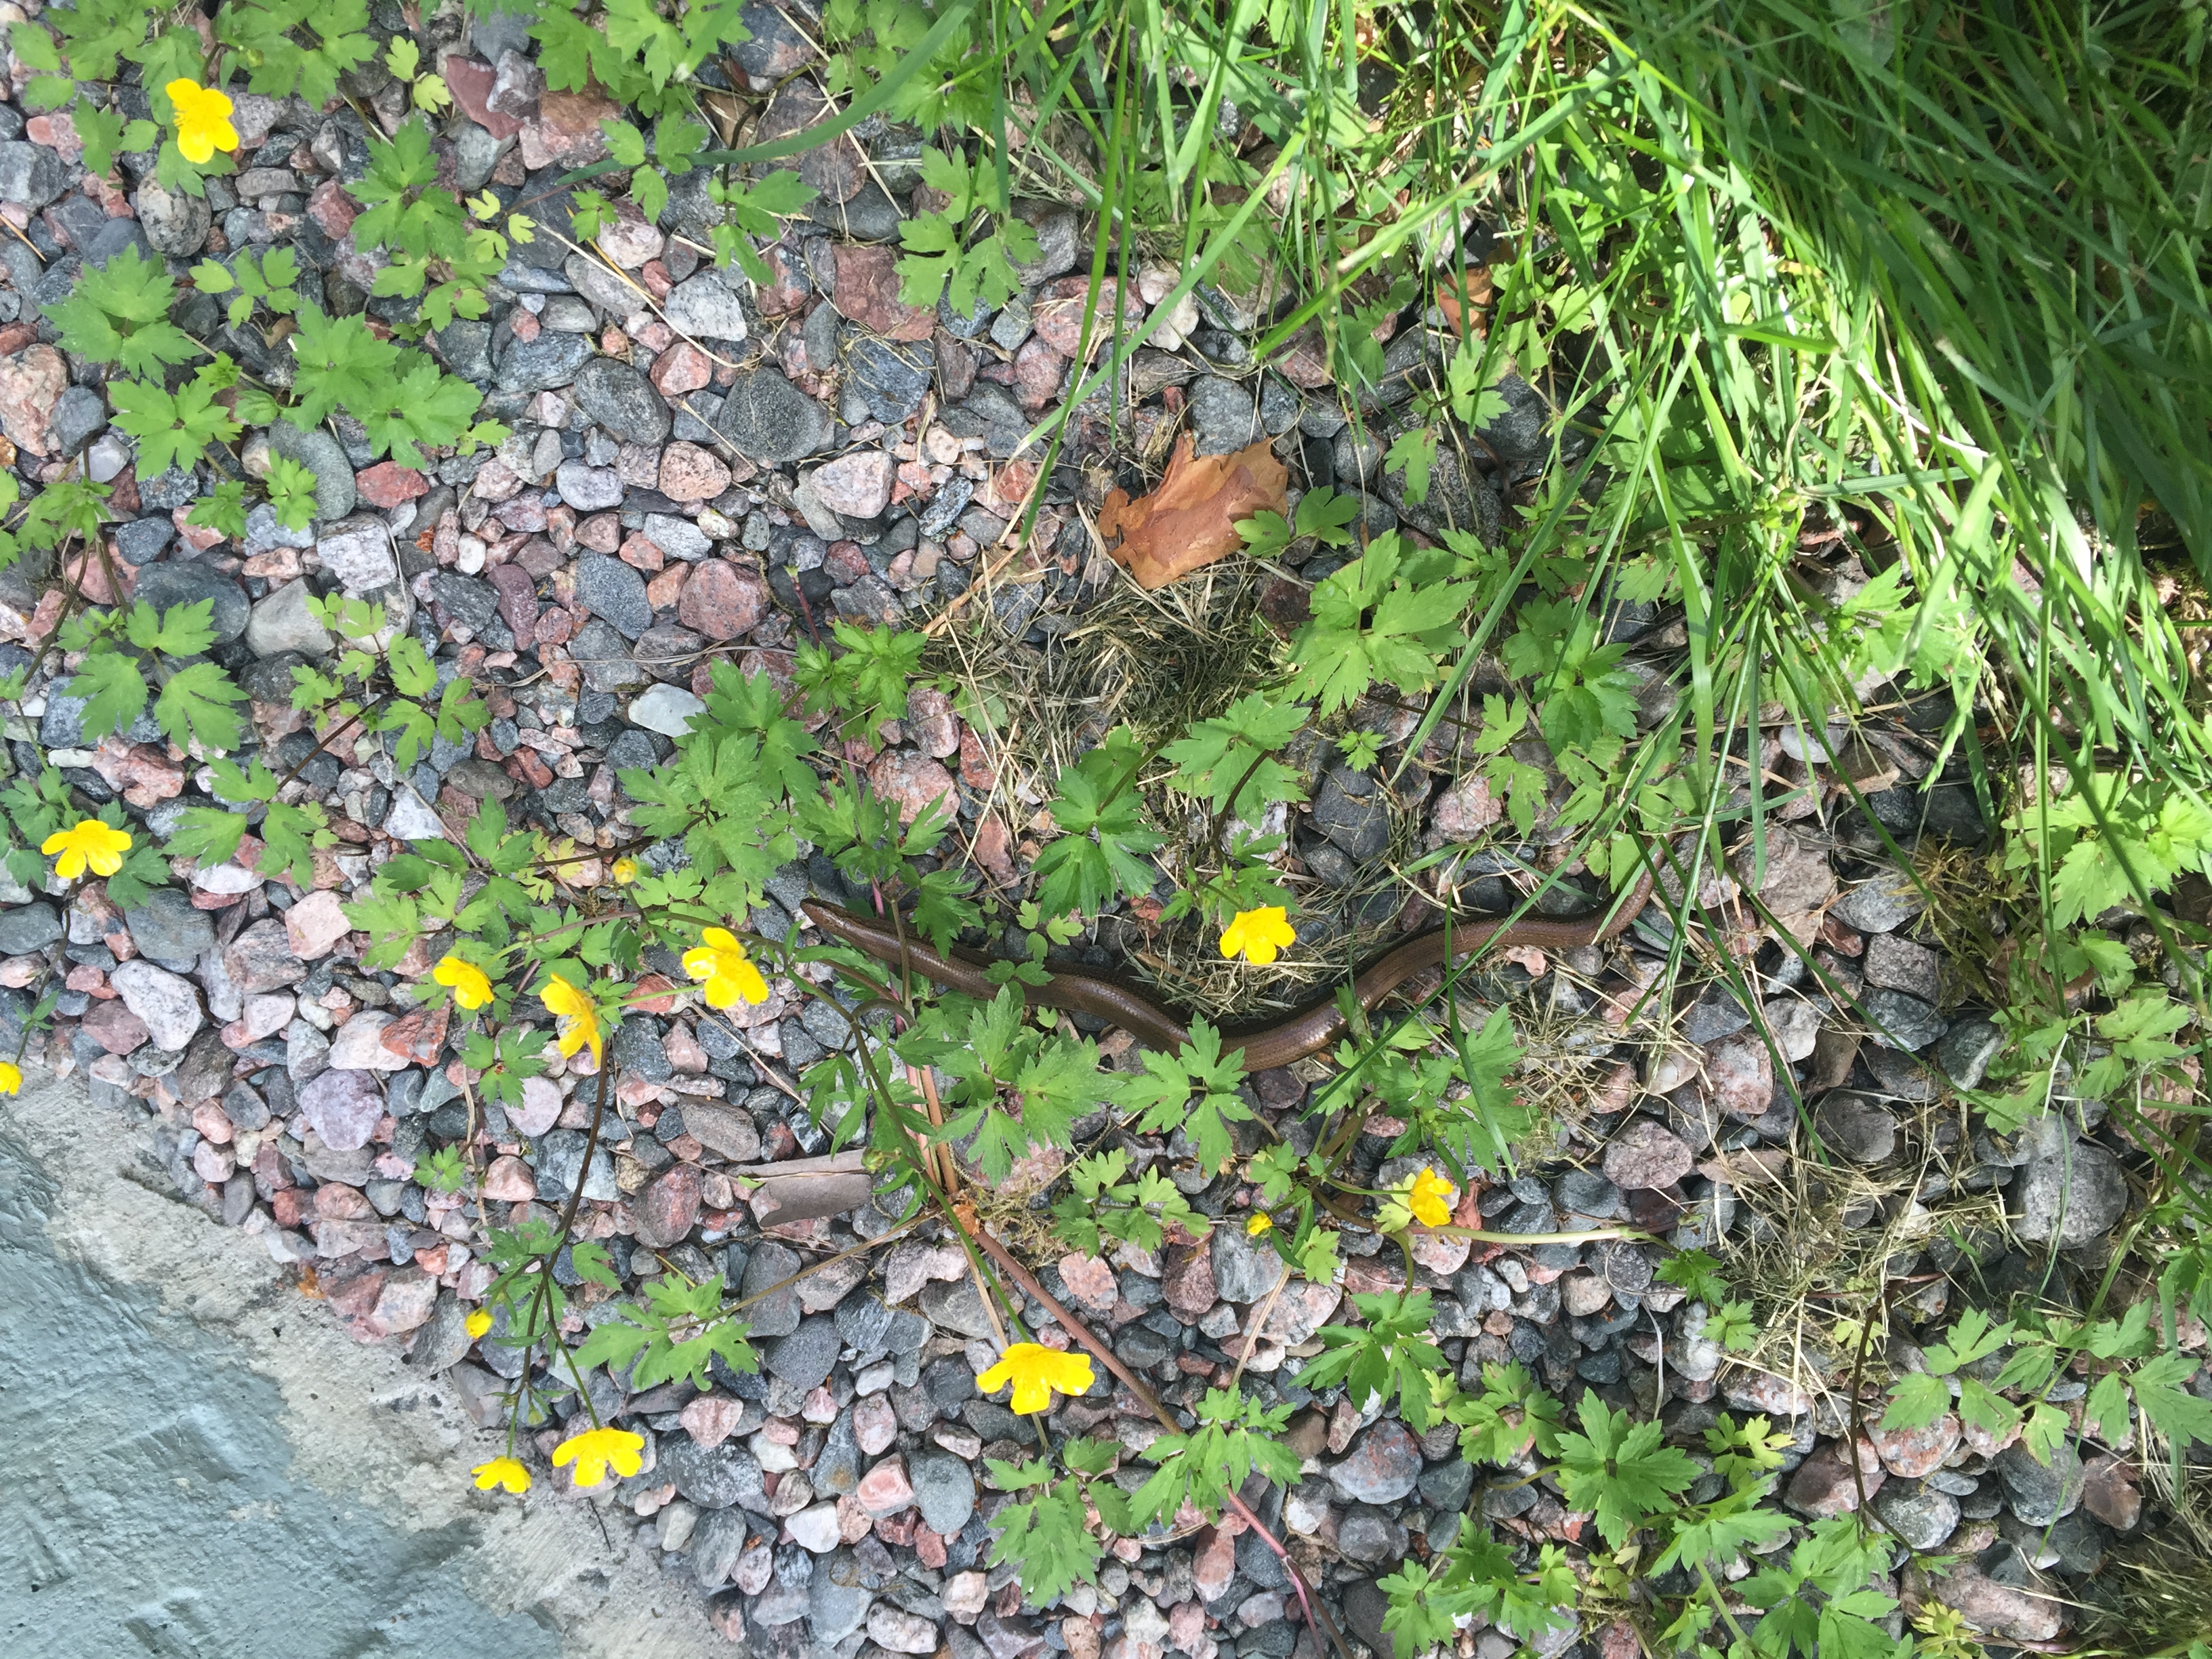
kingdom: Animalia
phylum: Chordata
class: Squamata
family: Anguidae
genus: Anguis
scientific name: Anguis colchica
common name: Slow worm
